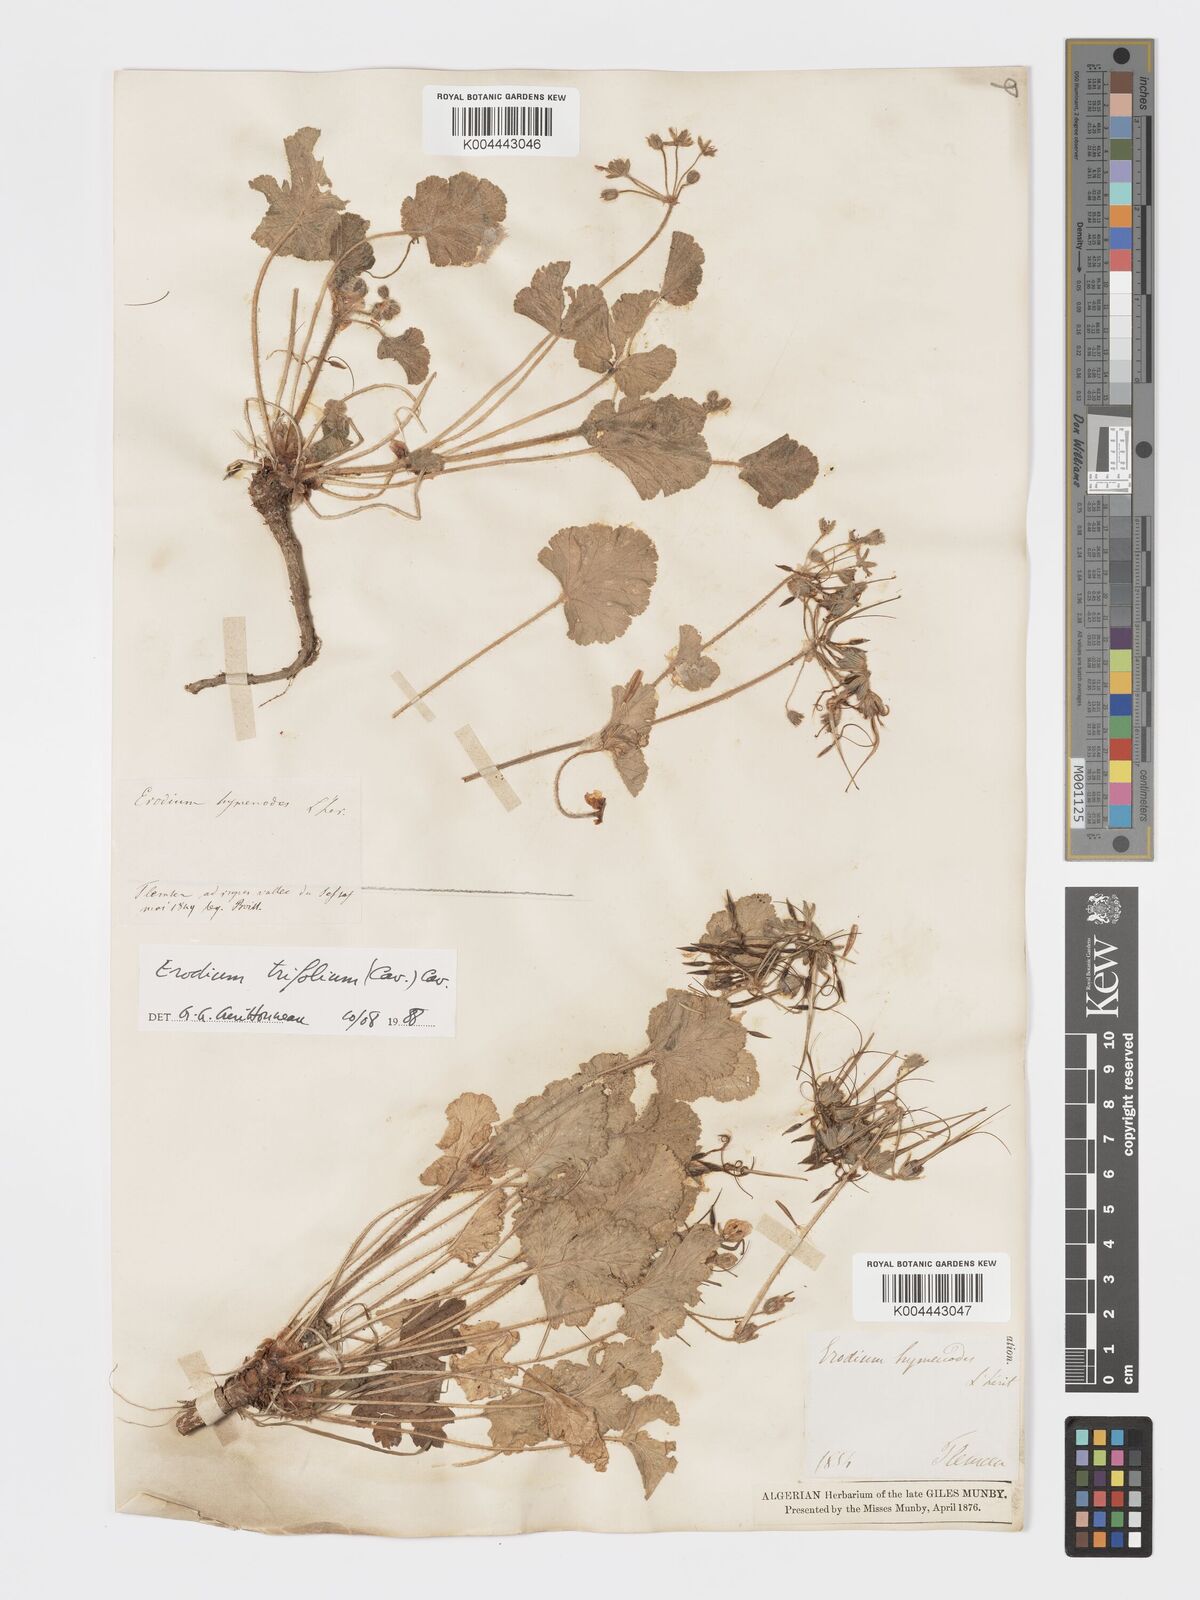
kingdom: Plantae
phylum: Tracheophyta
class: Magnoliopsida
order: Geraniales
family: Geraniaceae
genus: Erodium
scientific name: Erodium trifolium
